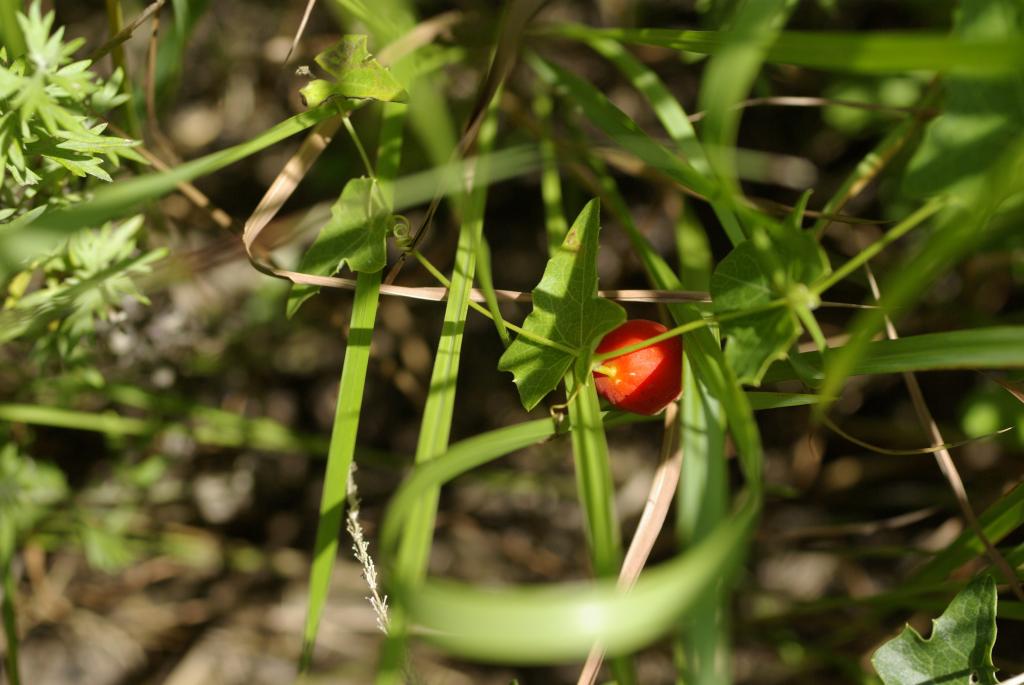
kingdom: Plantae
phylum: Tracheophyta
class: Magnoliopsida
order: Cucurbitales
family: Cucurbitaceae
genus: Solena
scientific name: Solena amplexicaulis
